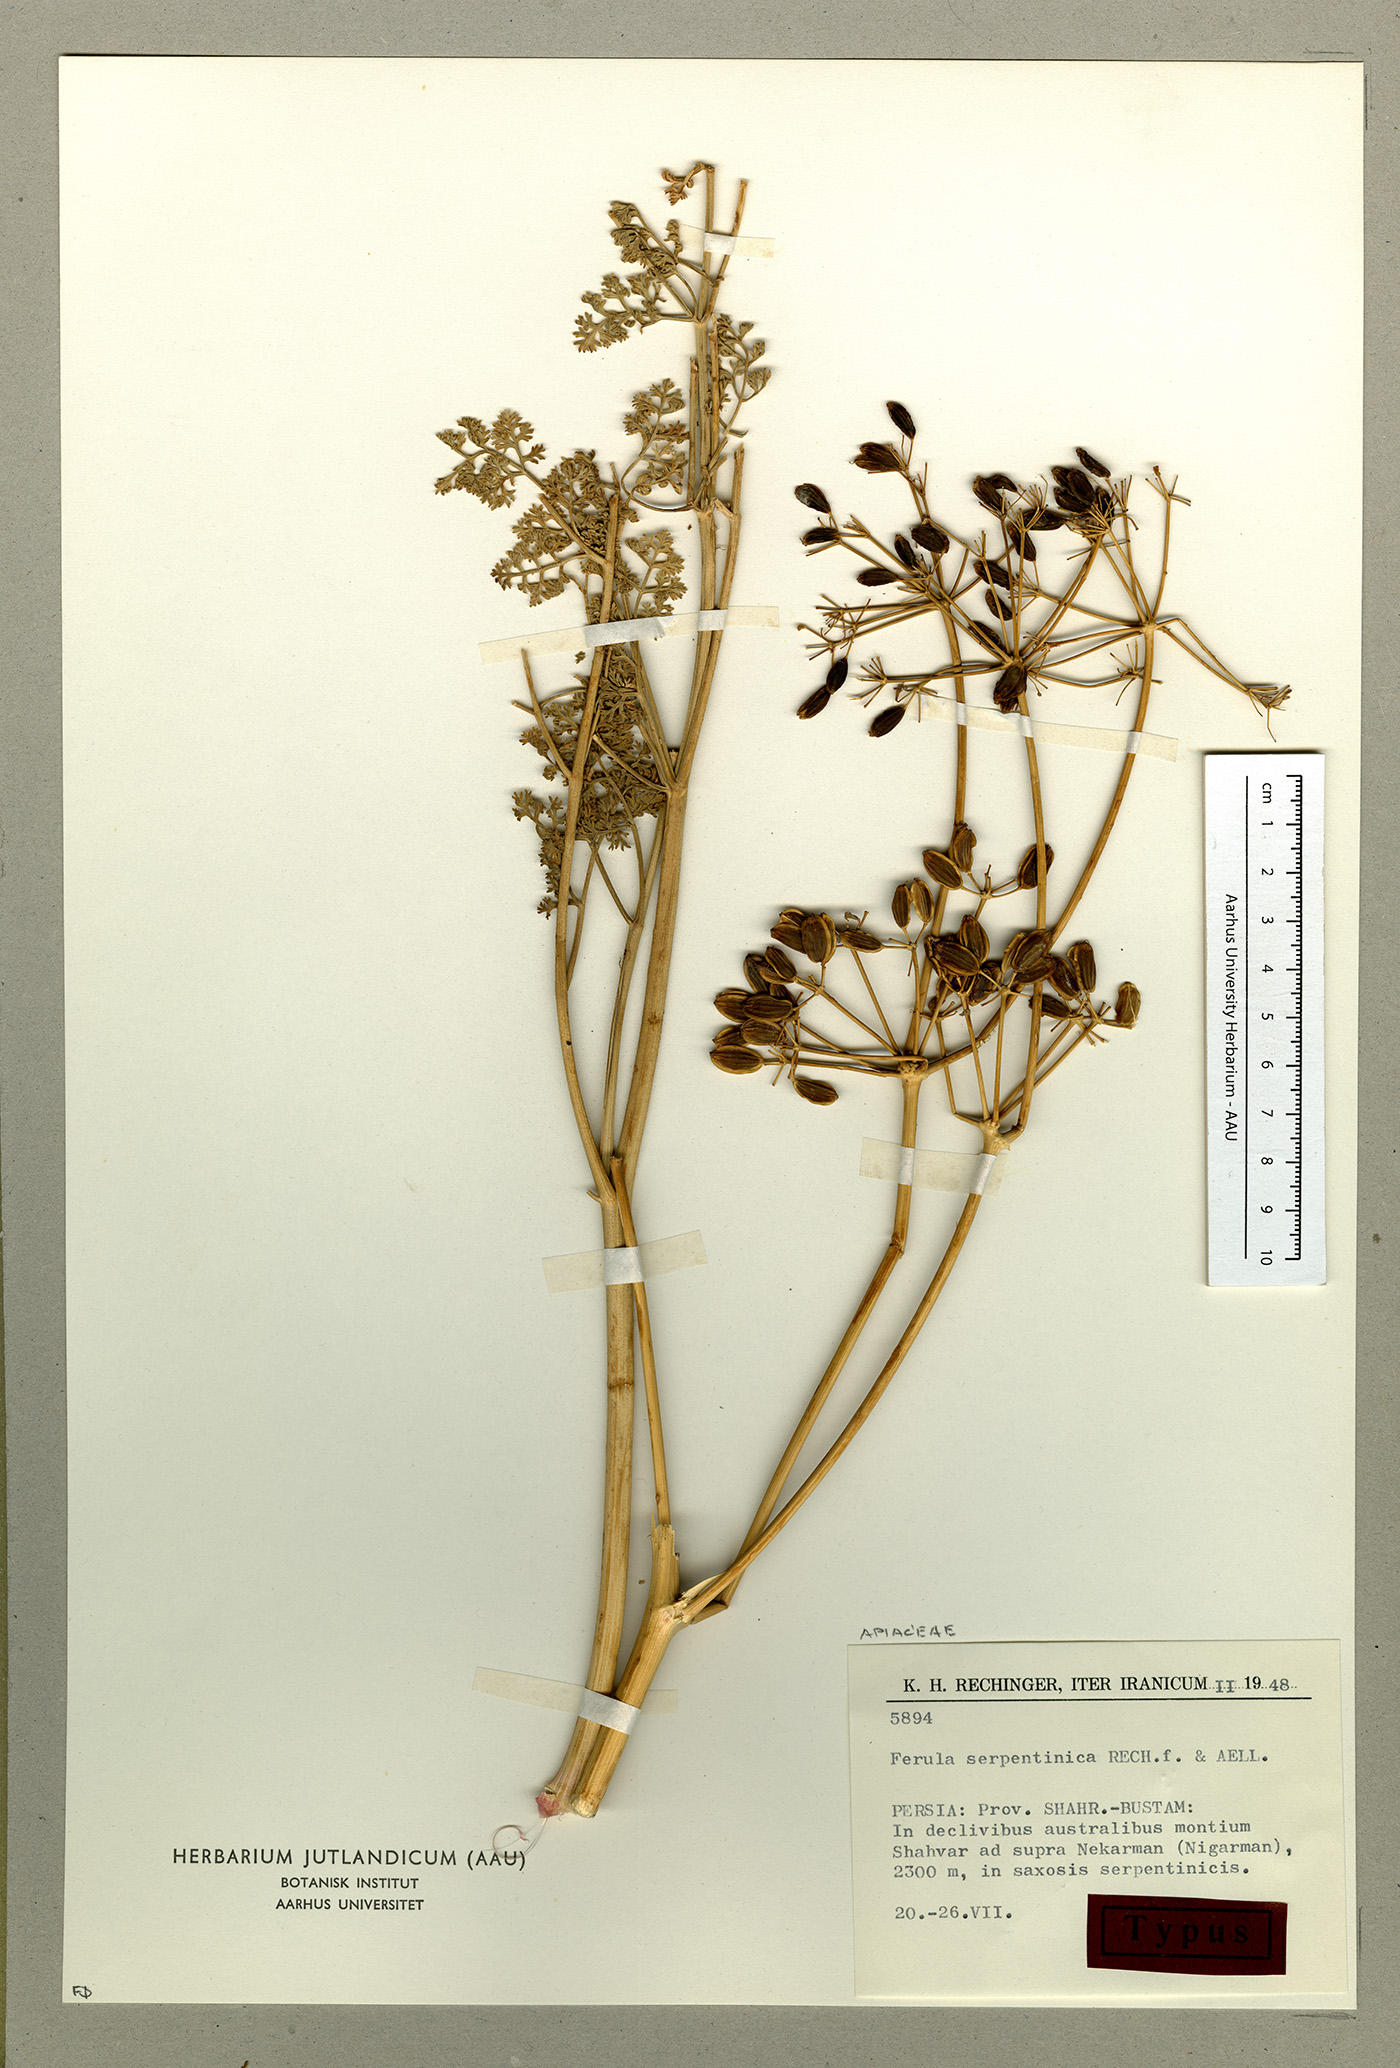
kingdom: Plantae
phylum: Tracheophyta
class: Magnoliopsida
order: Apiales
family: Apiaceae
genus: Ferula
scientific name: Ferula serpentinica
